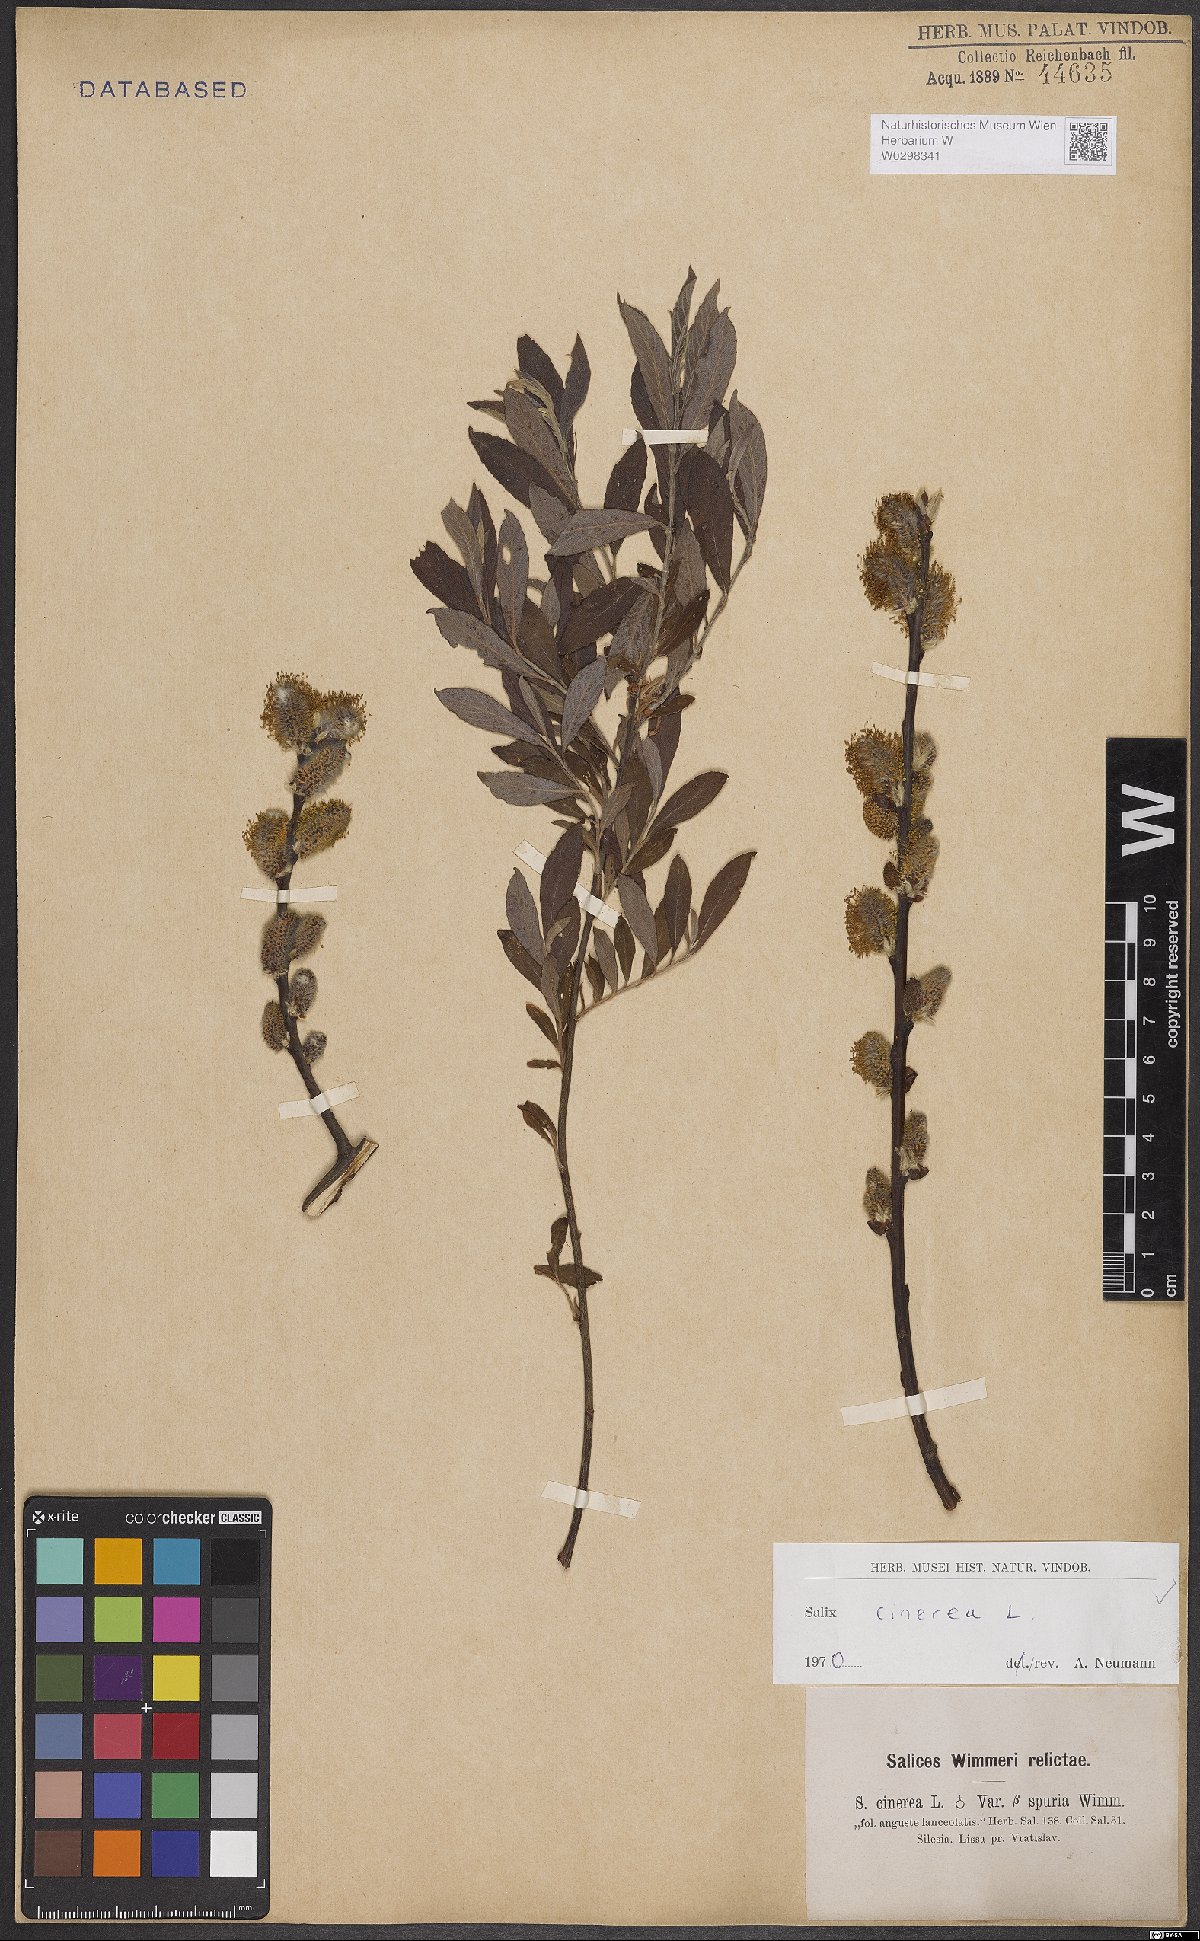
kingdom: Plantae
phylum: Tracheophyta
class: Magnoliopsida
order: Malpighiales
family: Salicaceae
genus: Salix
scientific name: Salix cinerea
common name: Common sallow
